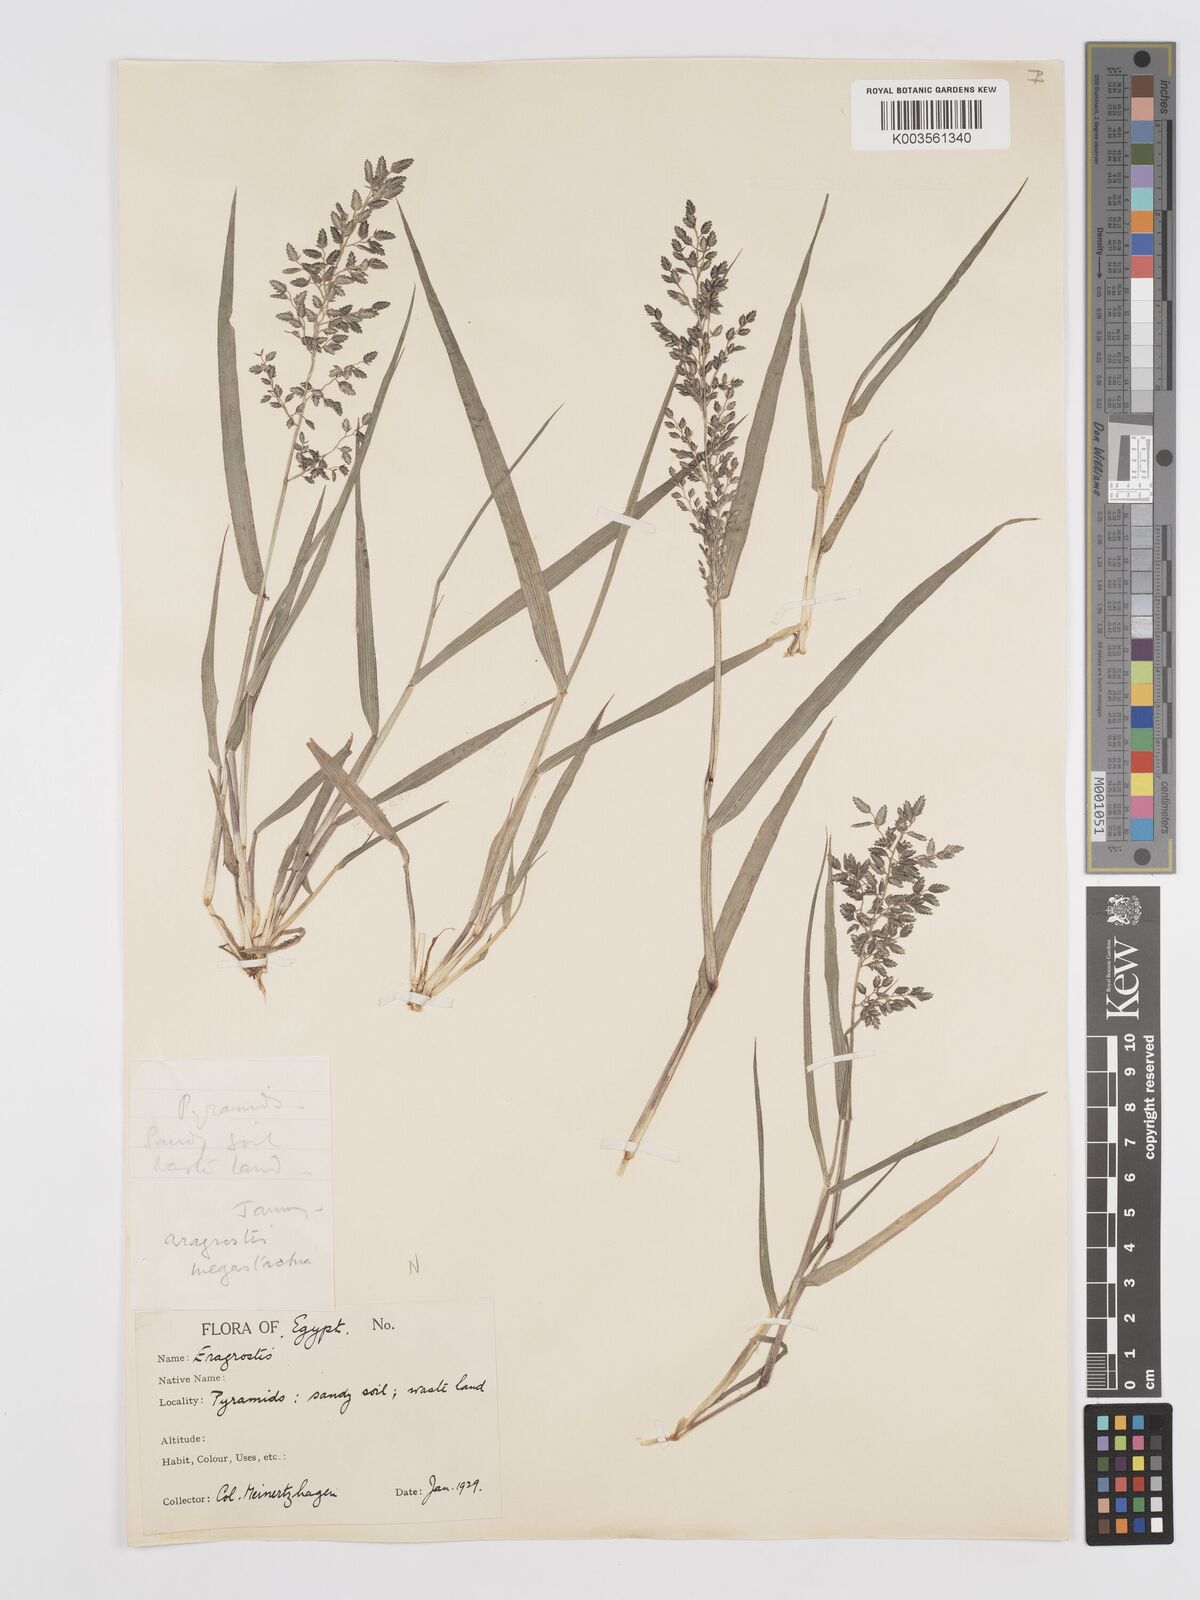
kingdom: Plantae
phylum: Tracheophyta
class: Liliopsida
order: Poales
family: Poaceae
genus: Eragrostis
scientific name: Eragrostis cilianensis
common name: Stinkgrass
